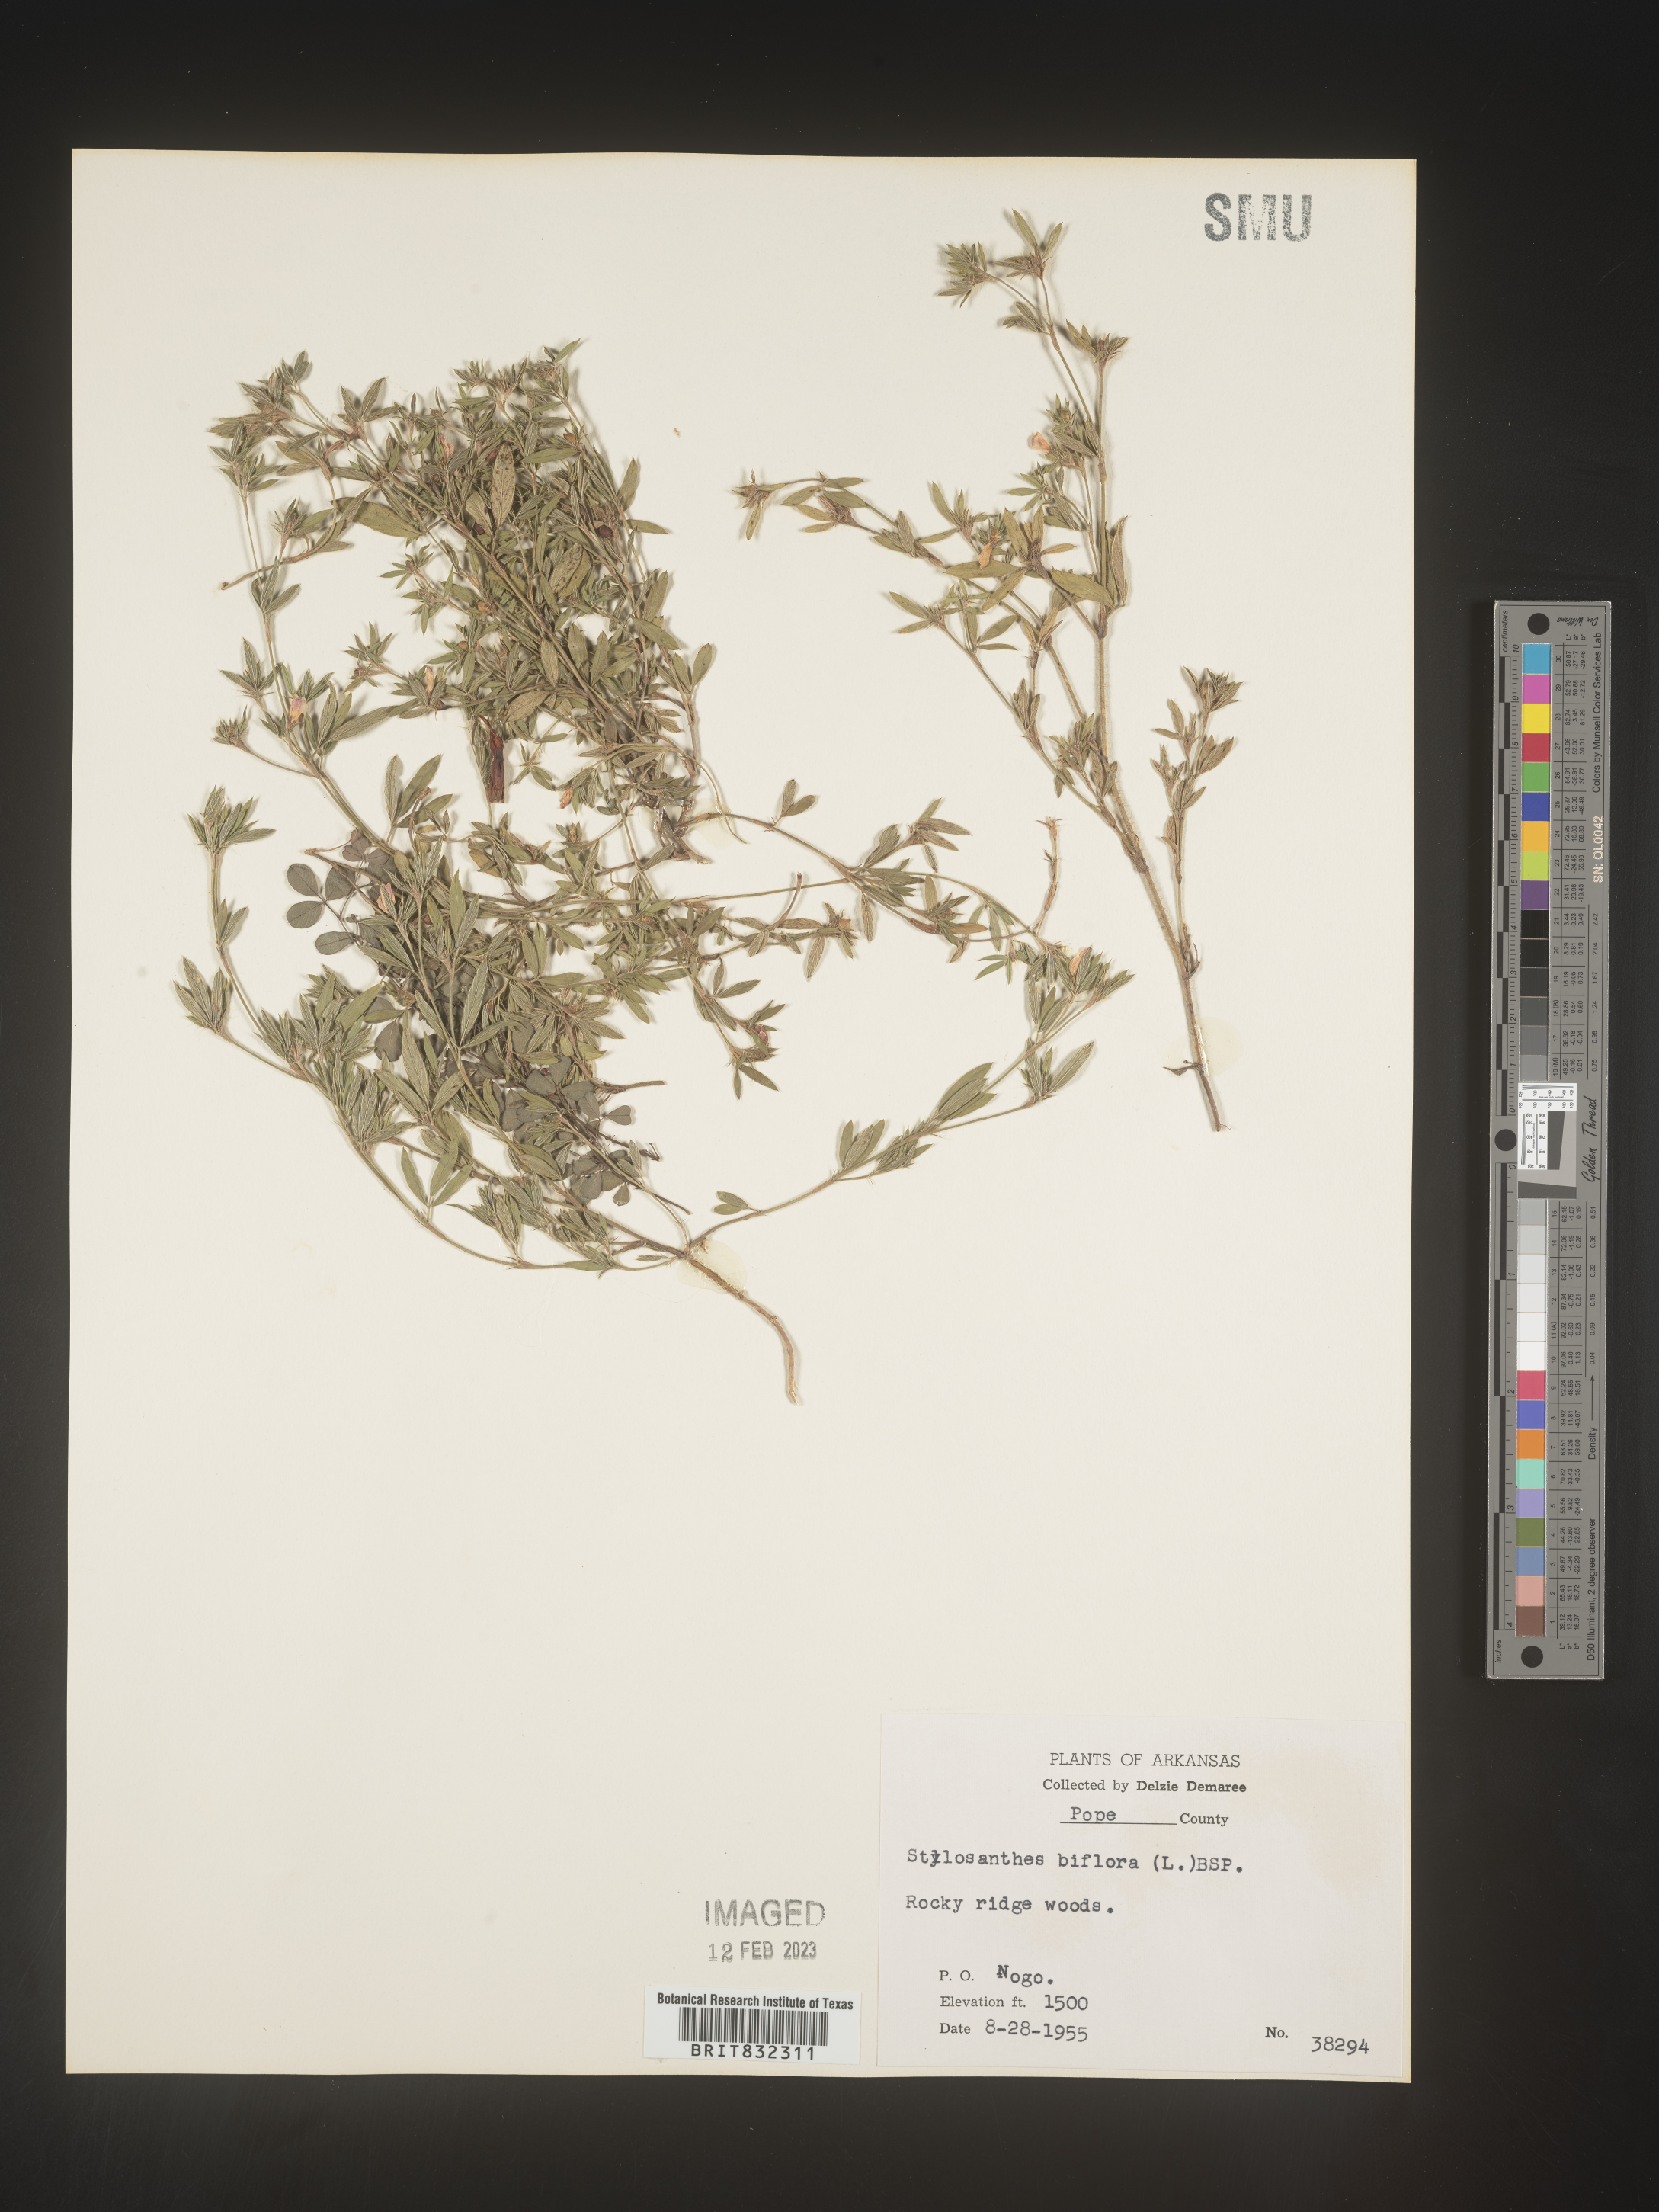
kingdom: Plantae
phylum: Tracheophyta
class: Magnoliopsida
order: Fabales
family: Fabaceae
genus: Stylosanthes
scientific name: Stylosanthes biflora
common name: Two-flower pencil-flower
